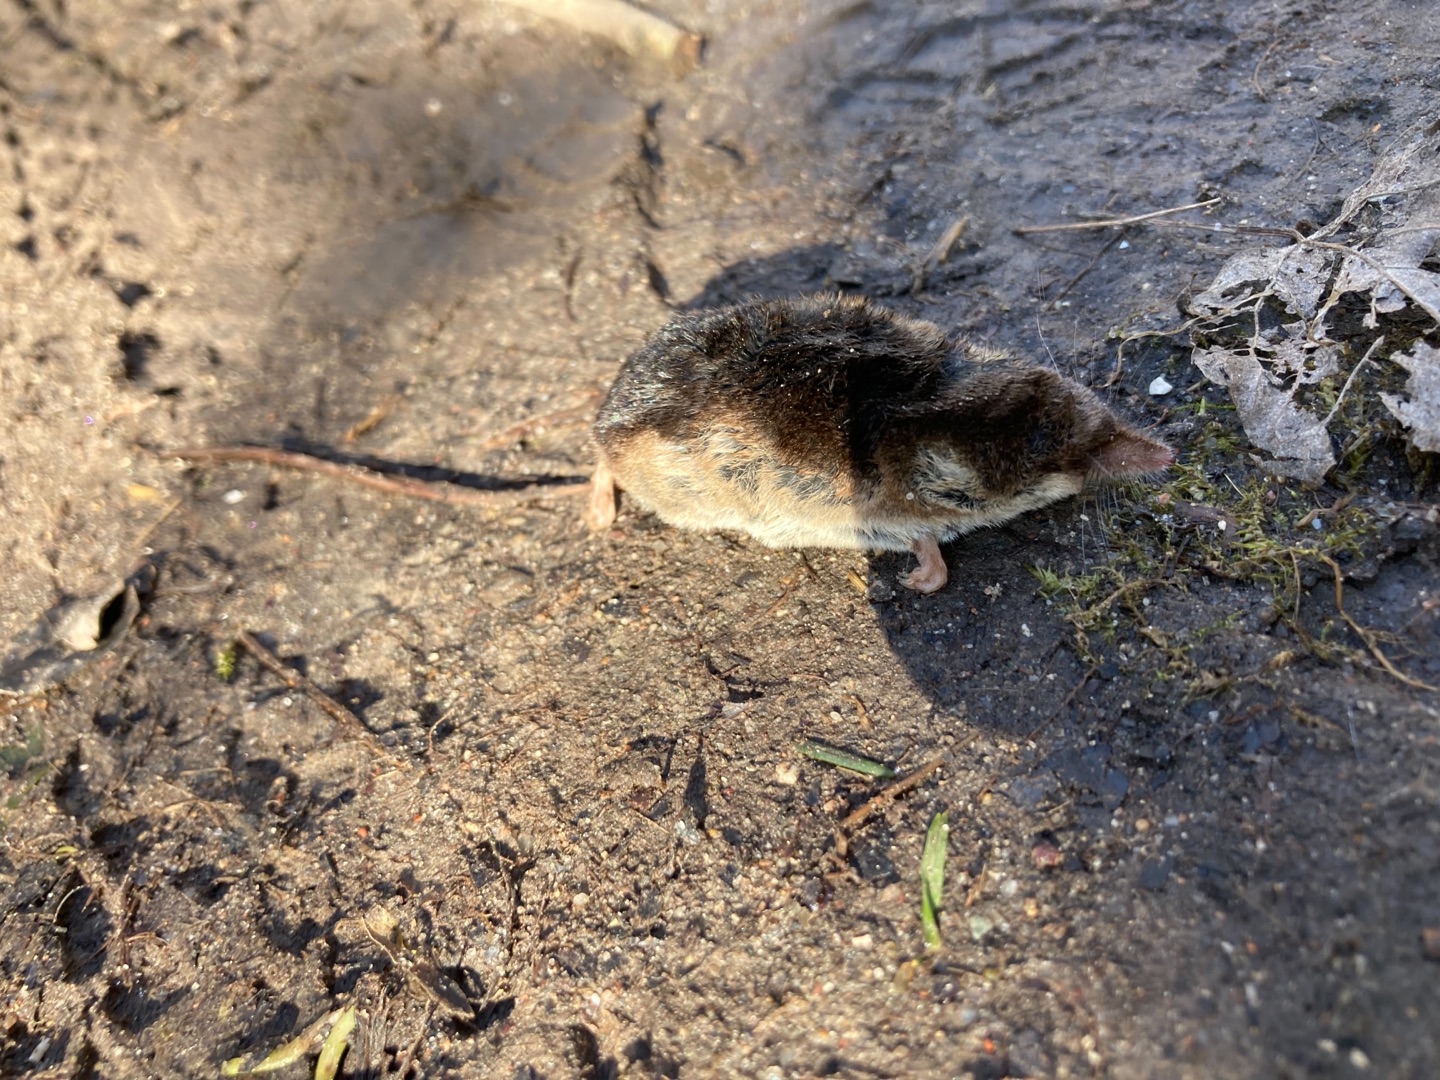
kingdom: Animalia
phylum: Chordata
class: Mammalia
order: Soricomorpha
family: Soricidae
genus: Sorex
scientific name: Sorex araneus
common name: Almindelig spidsmus
